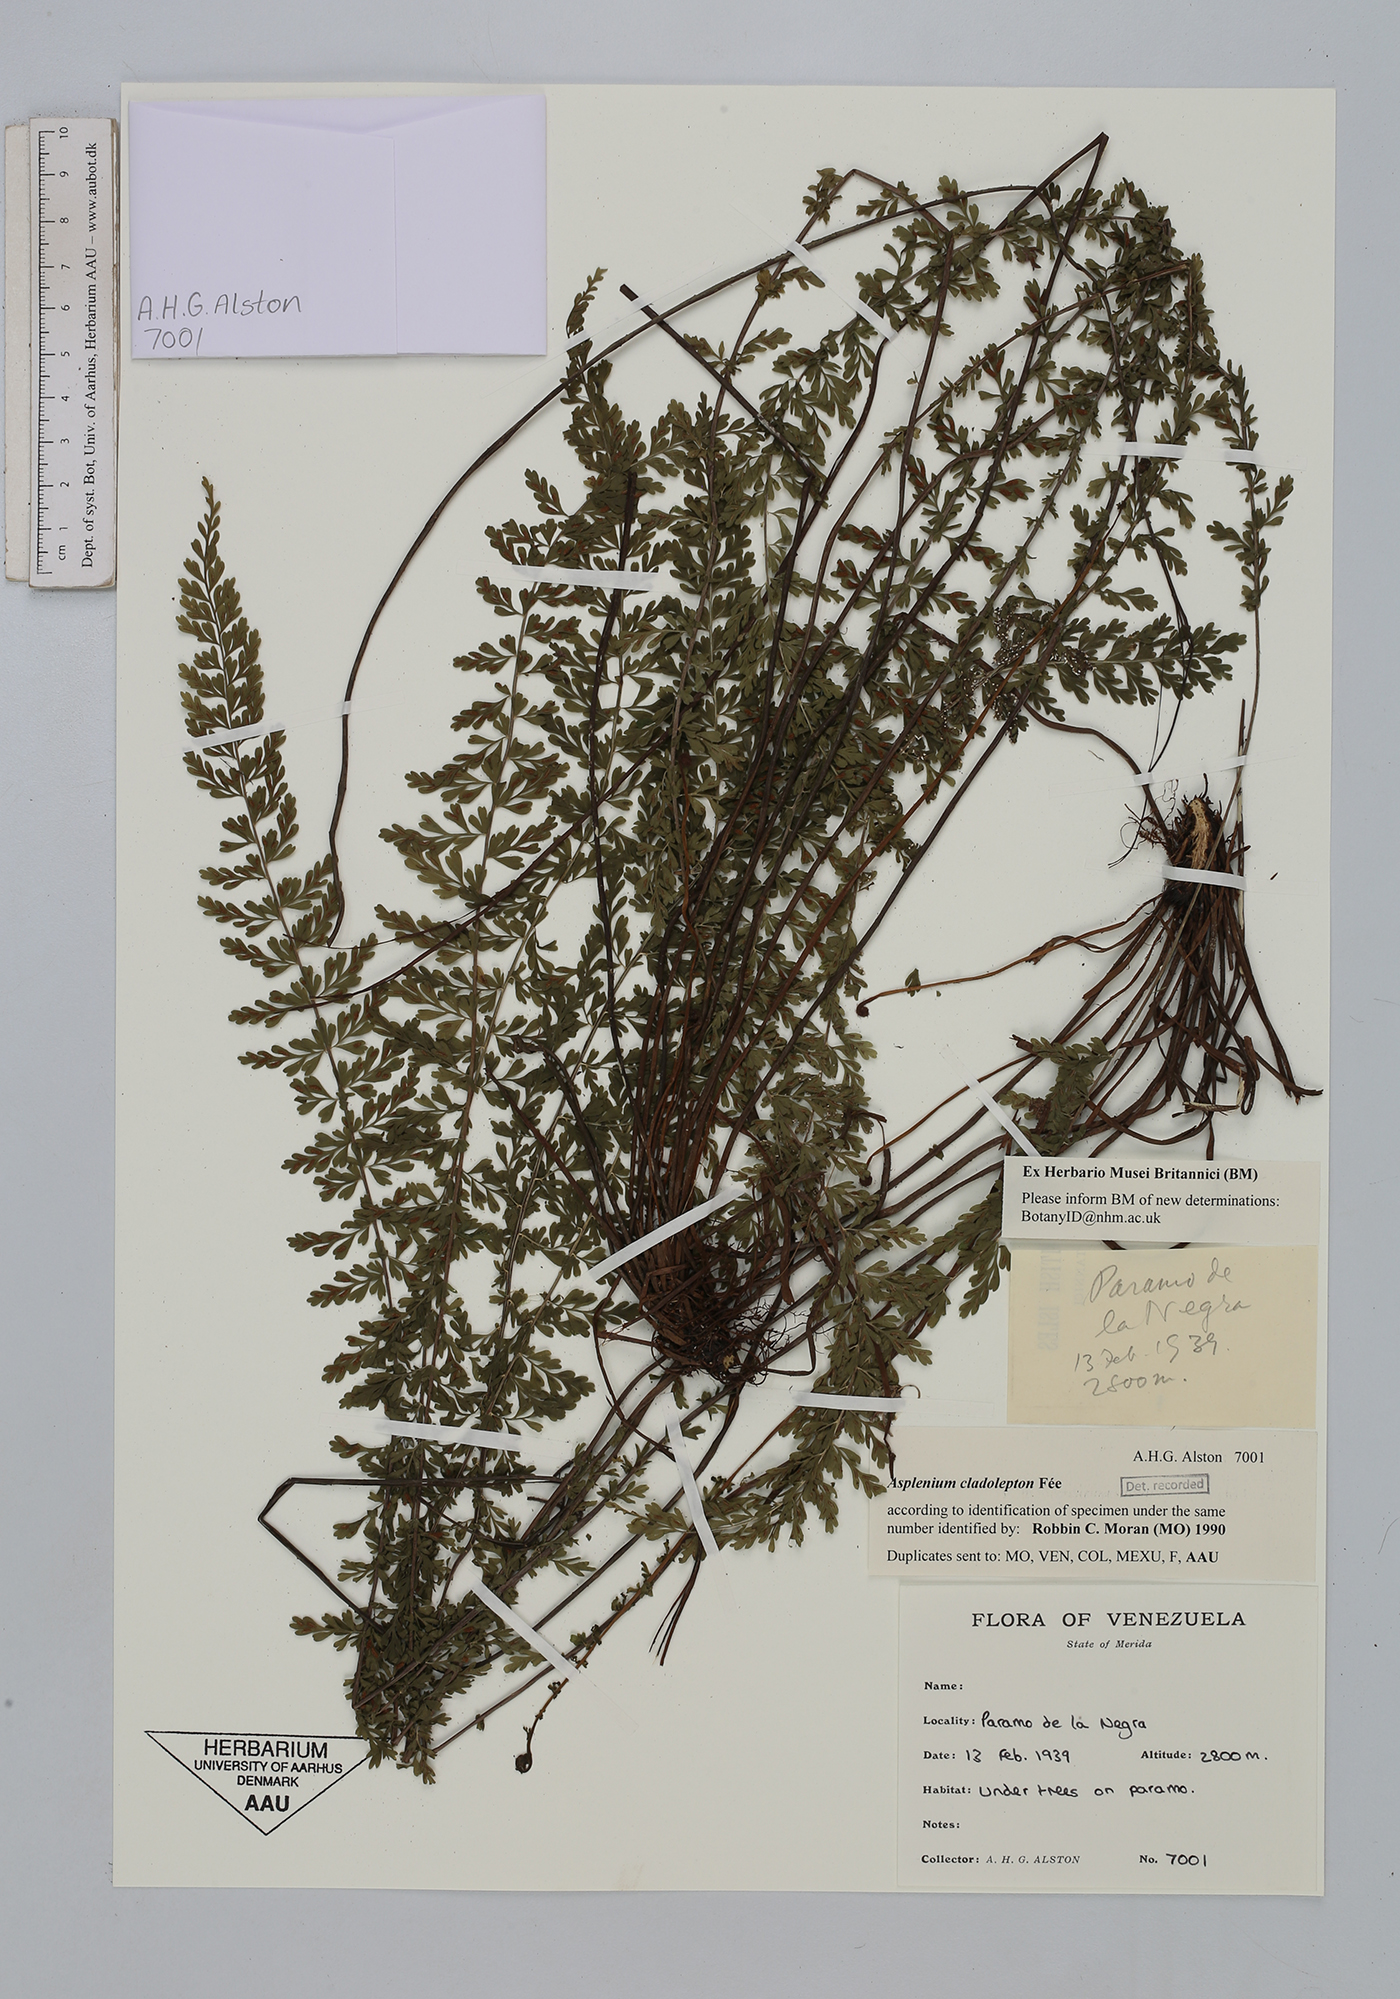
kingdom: Plantae
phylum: Tracheophyta
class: Polypodiopsida
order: Polypodiales
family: Aspleniaceae
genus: Asplenium
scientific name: Asplenium cladolepton
